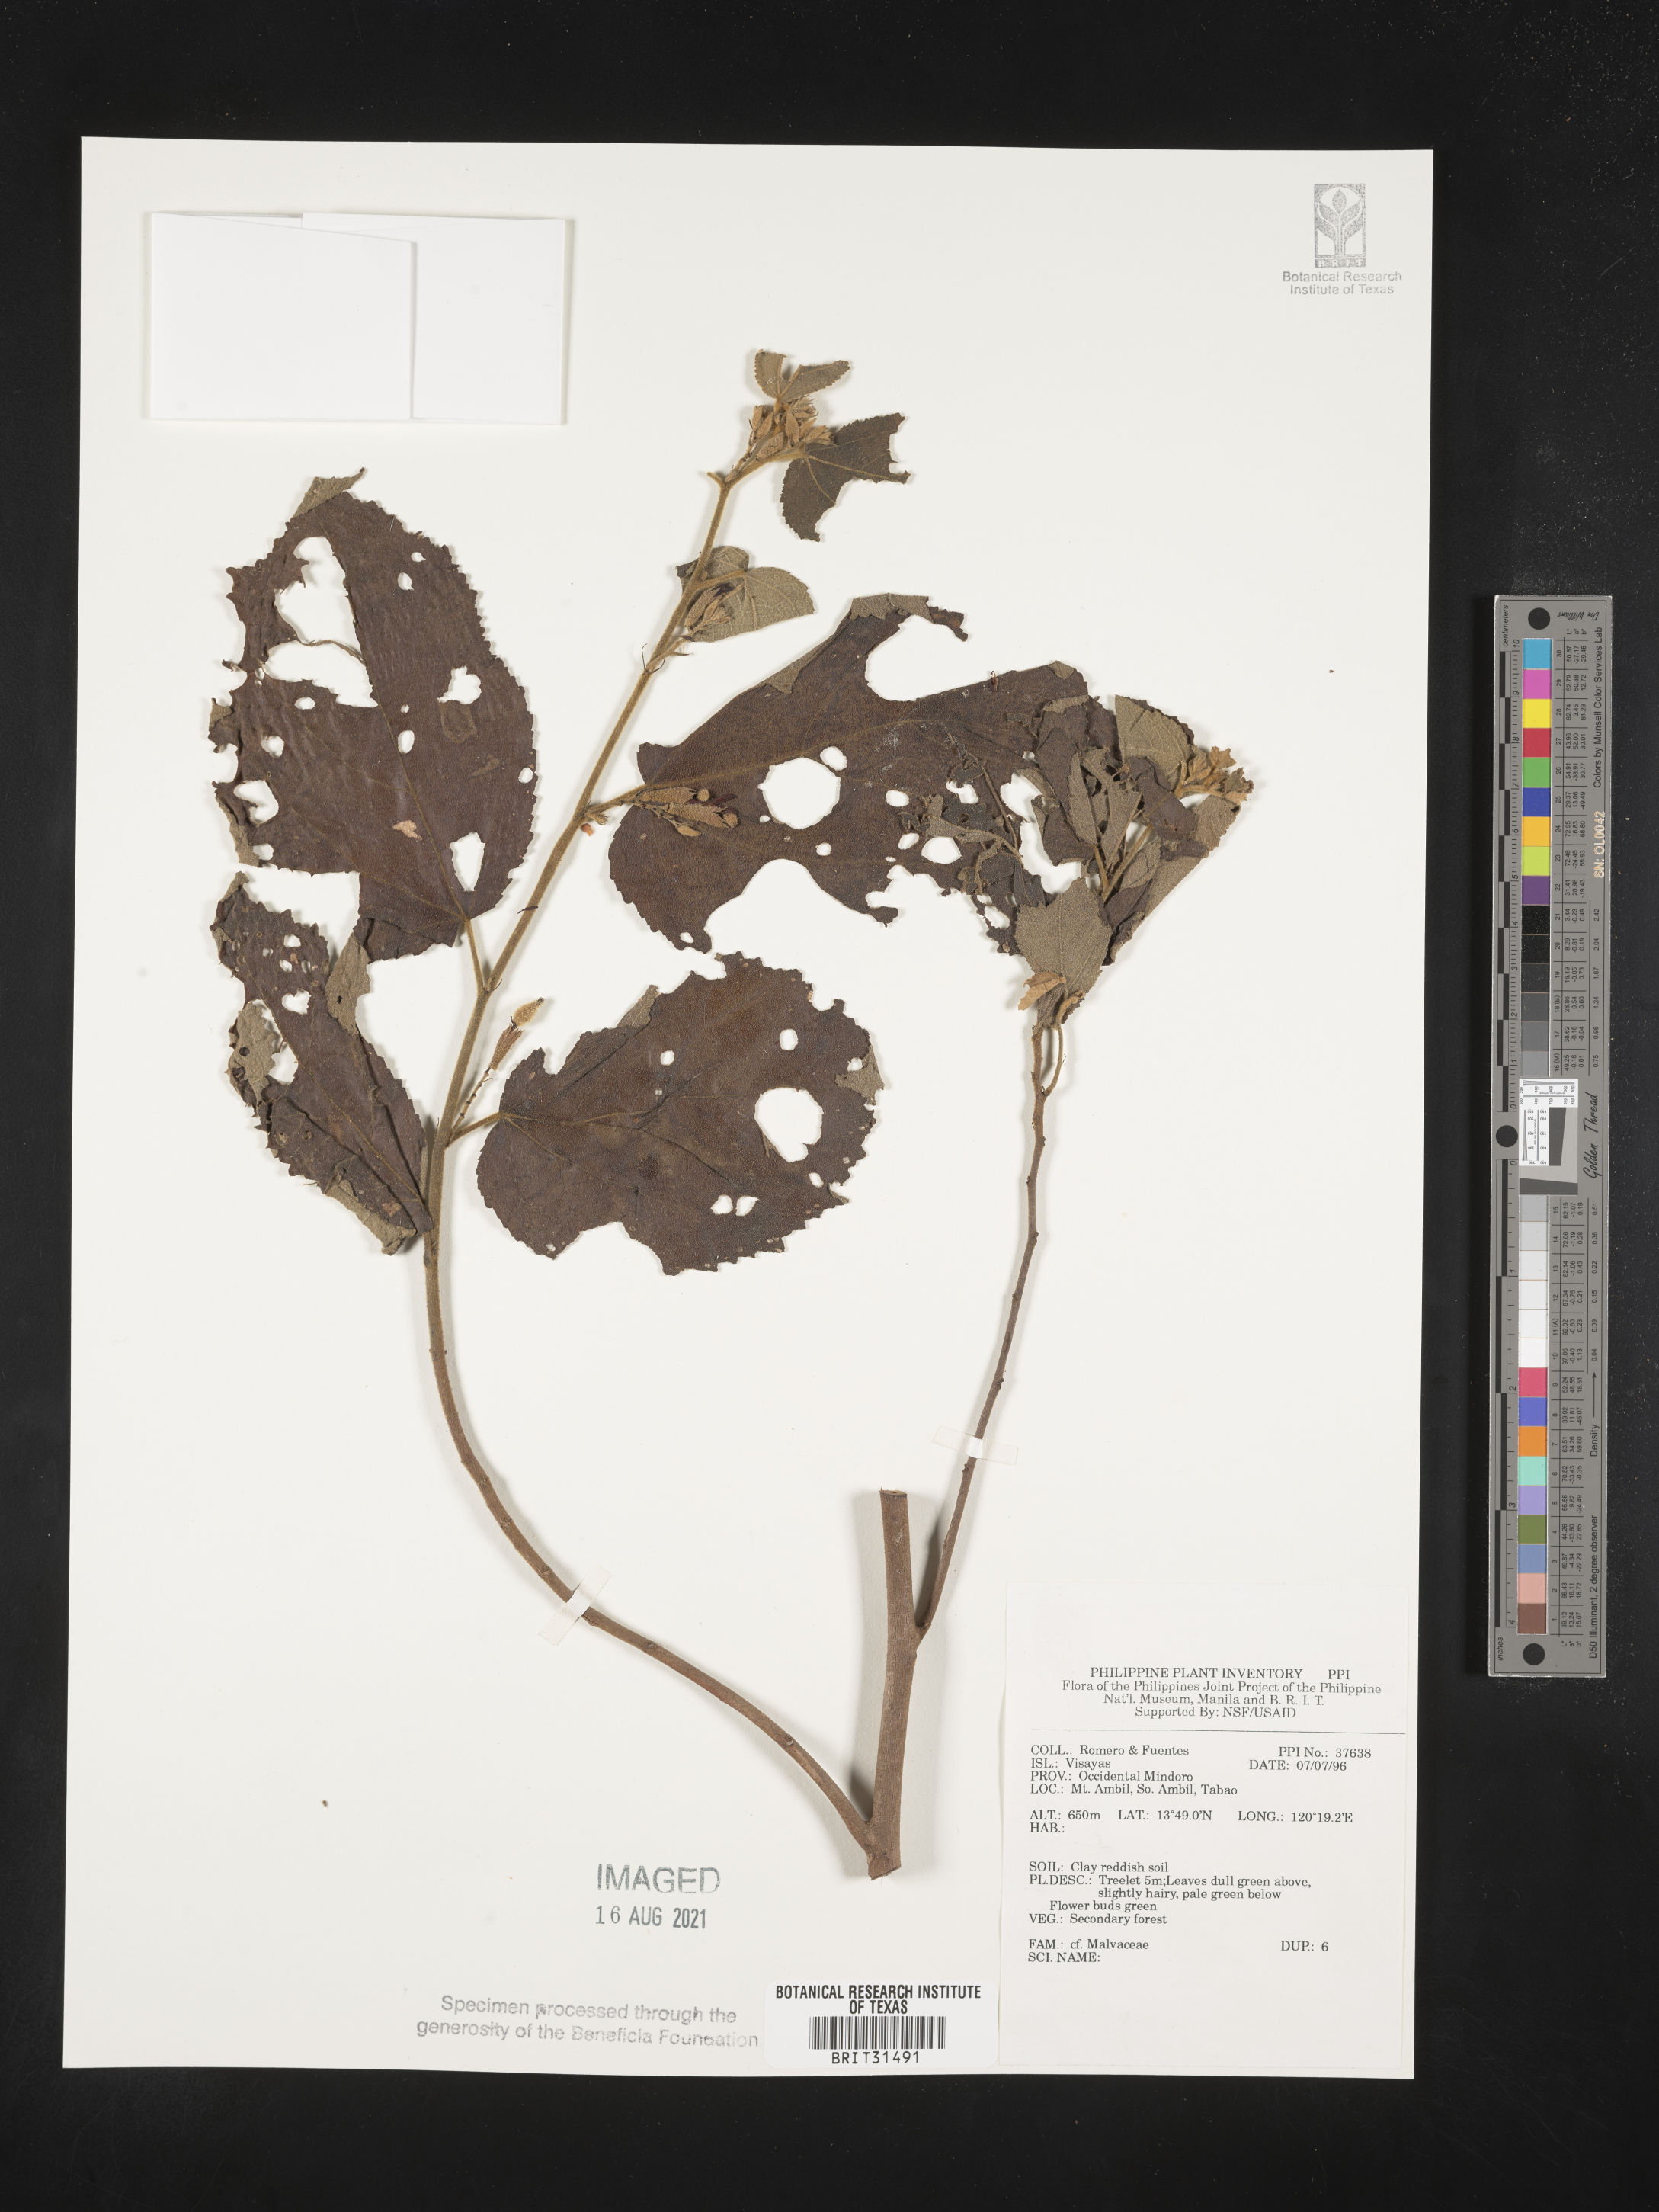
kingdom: Plantae
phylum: Tracheophyta
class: Magnoliopsida
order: Malvales
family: Malvaceae
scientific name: Malvaceae
